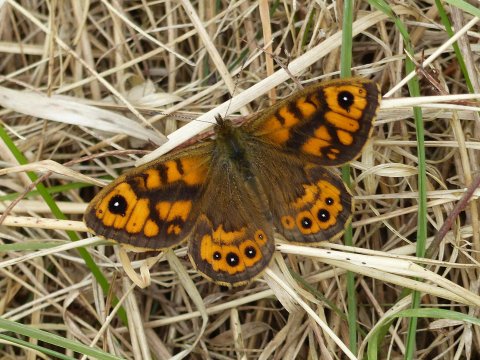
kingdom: Animalia
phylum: Arthropoda
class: Insecta
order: Lepidoptera
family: Nymphalidae
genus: Pararge
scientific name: Pararge Lasiommata megera
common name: Wall
